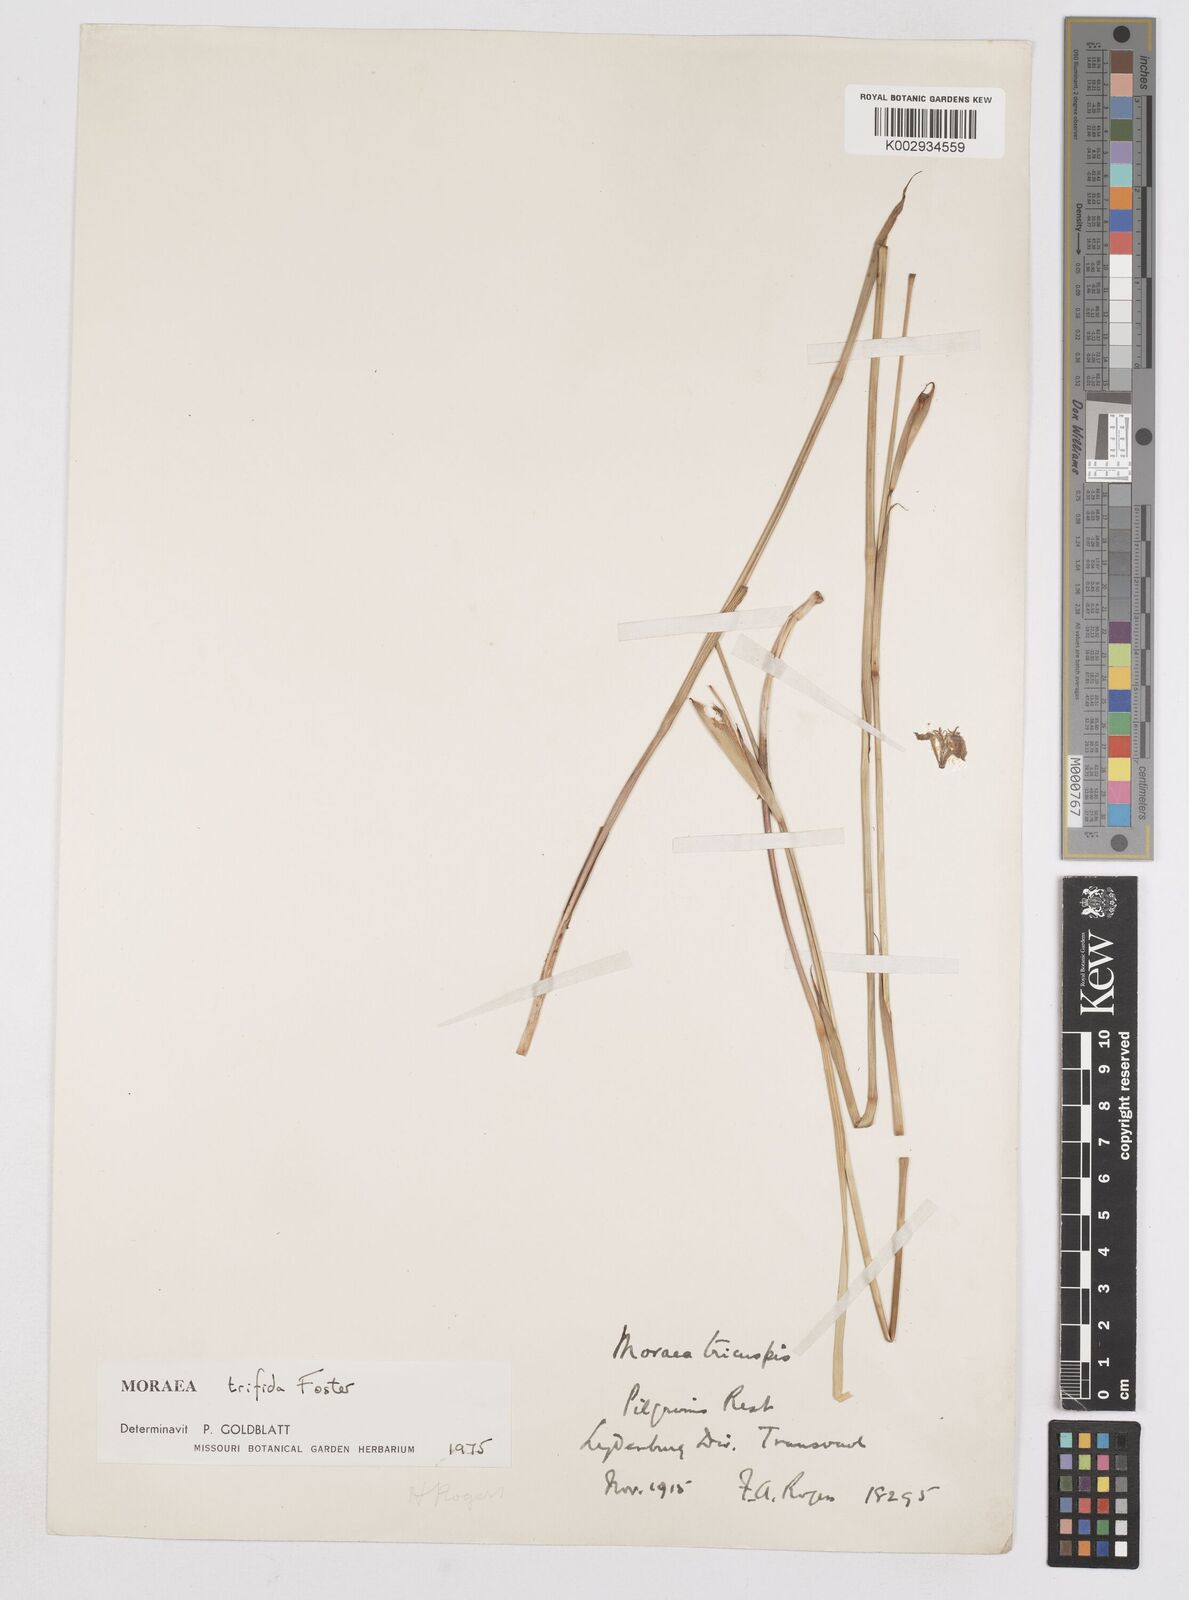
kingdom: Plantae
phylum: Tracheophyta
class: Liliopsida
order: Asparagales
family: Iridaceae
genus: Moraea
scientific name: Moraea trifida
